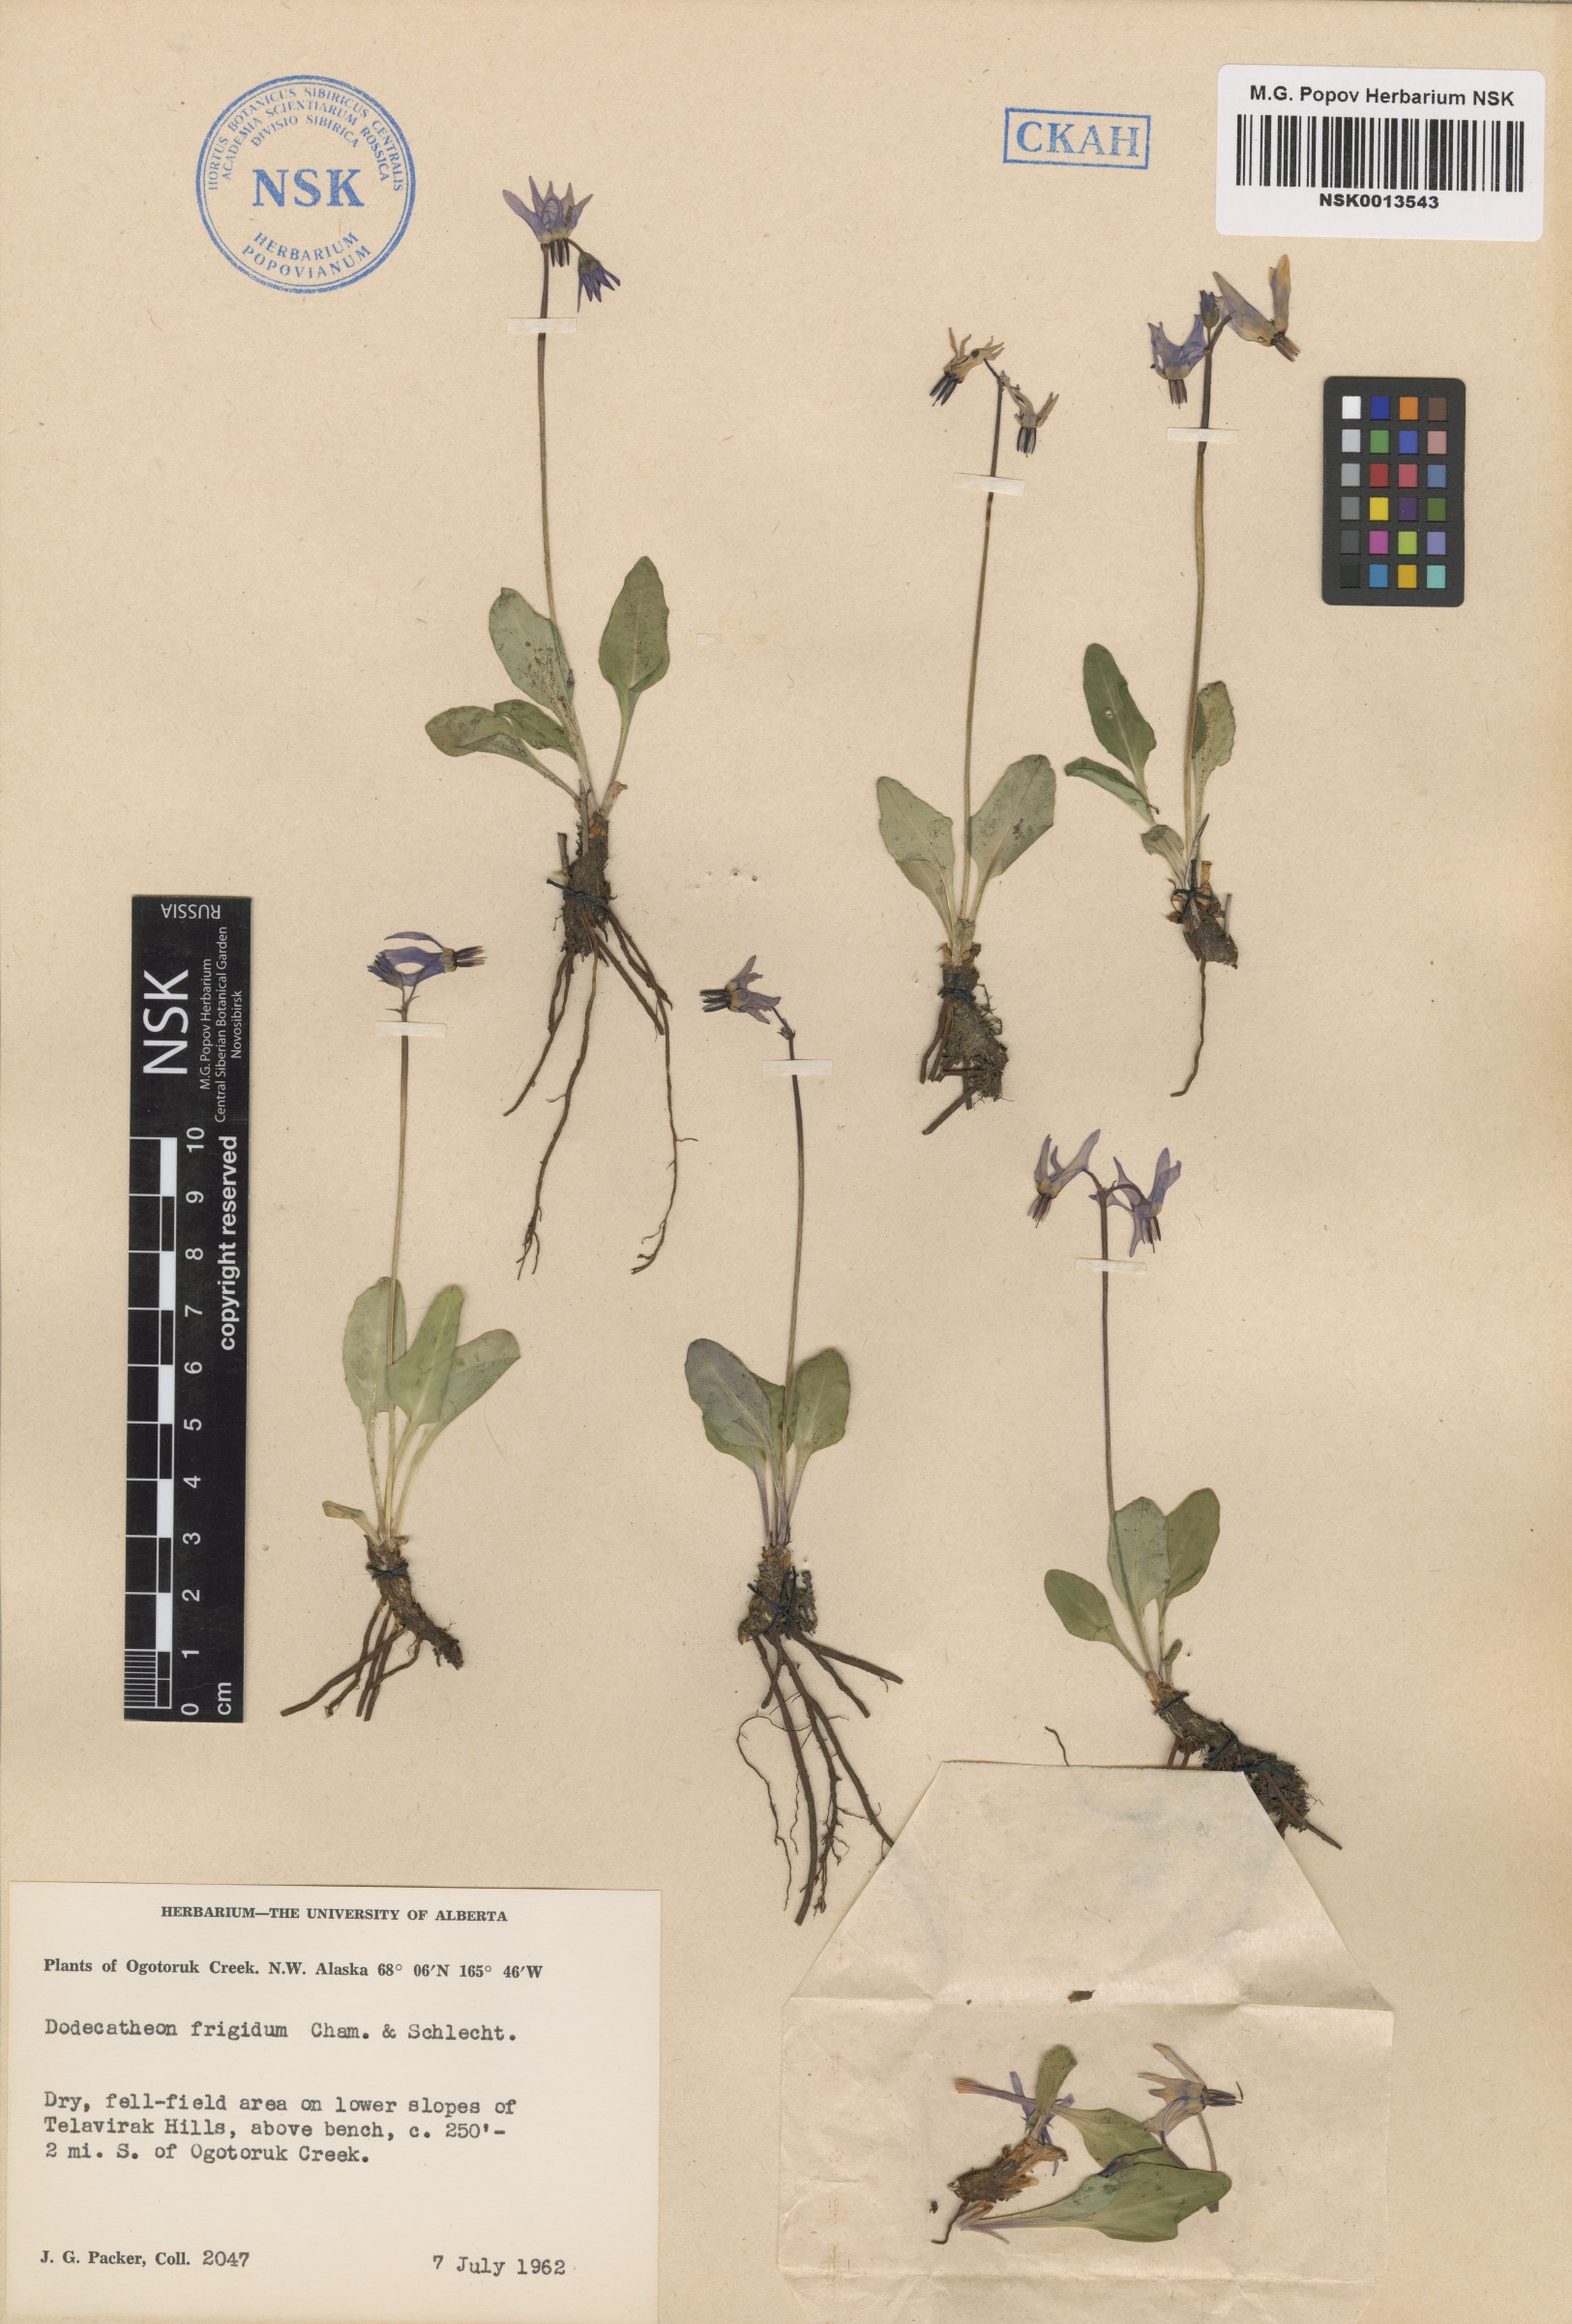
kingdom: Plantae
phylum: Tracheophyta
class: Magnoliopsida
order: Ericales
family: Primulaceae
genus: Dodecatheon
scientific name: Dodecatheon frigidum
